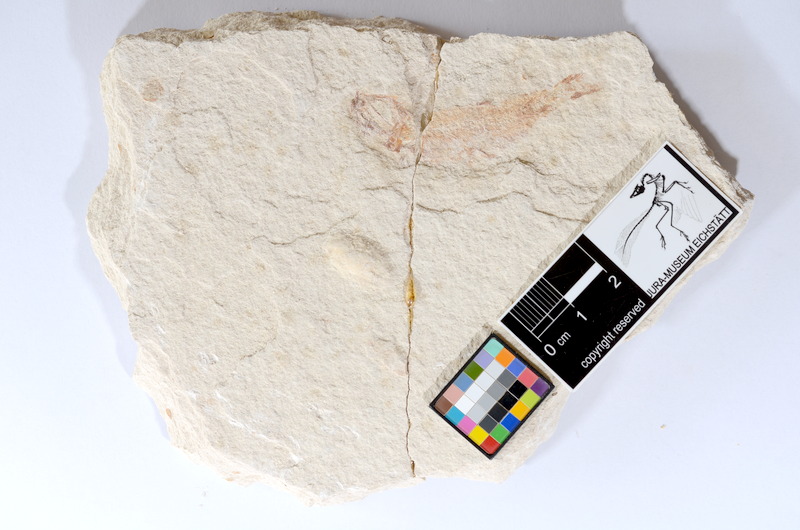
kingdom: Animalia
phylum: Chordata
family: Ascalaboidae
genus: Tharsis
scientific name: Tharsis dubius
